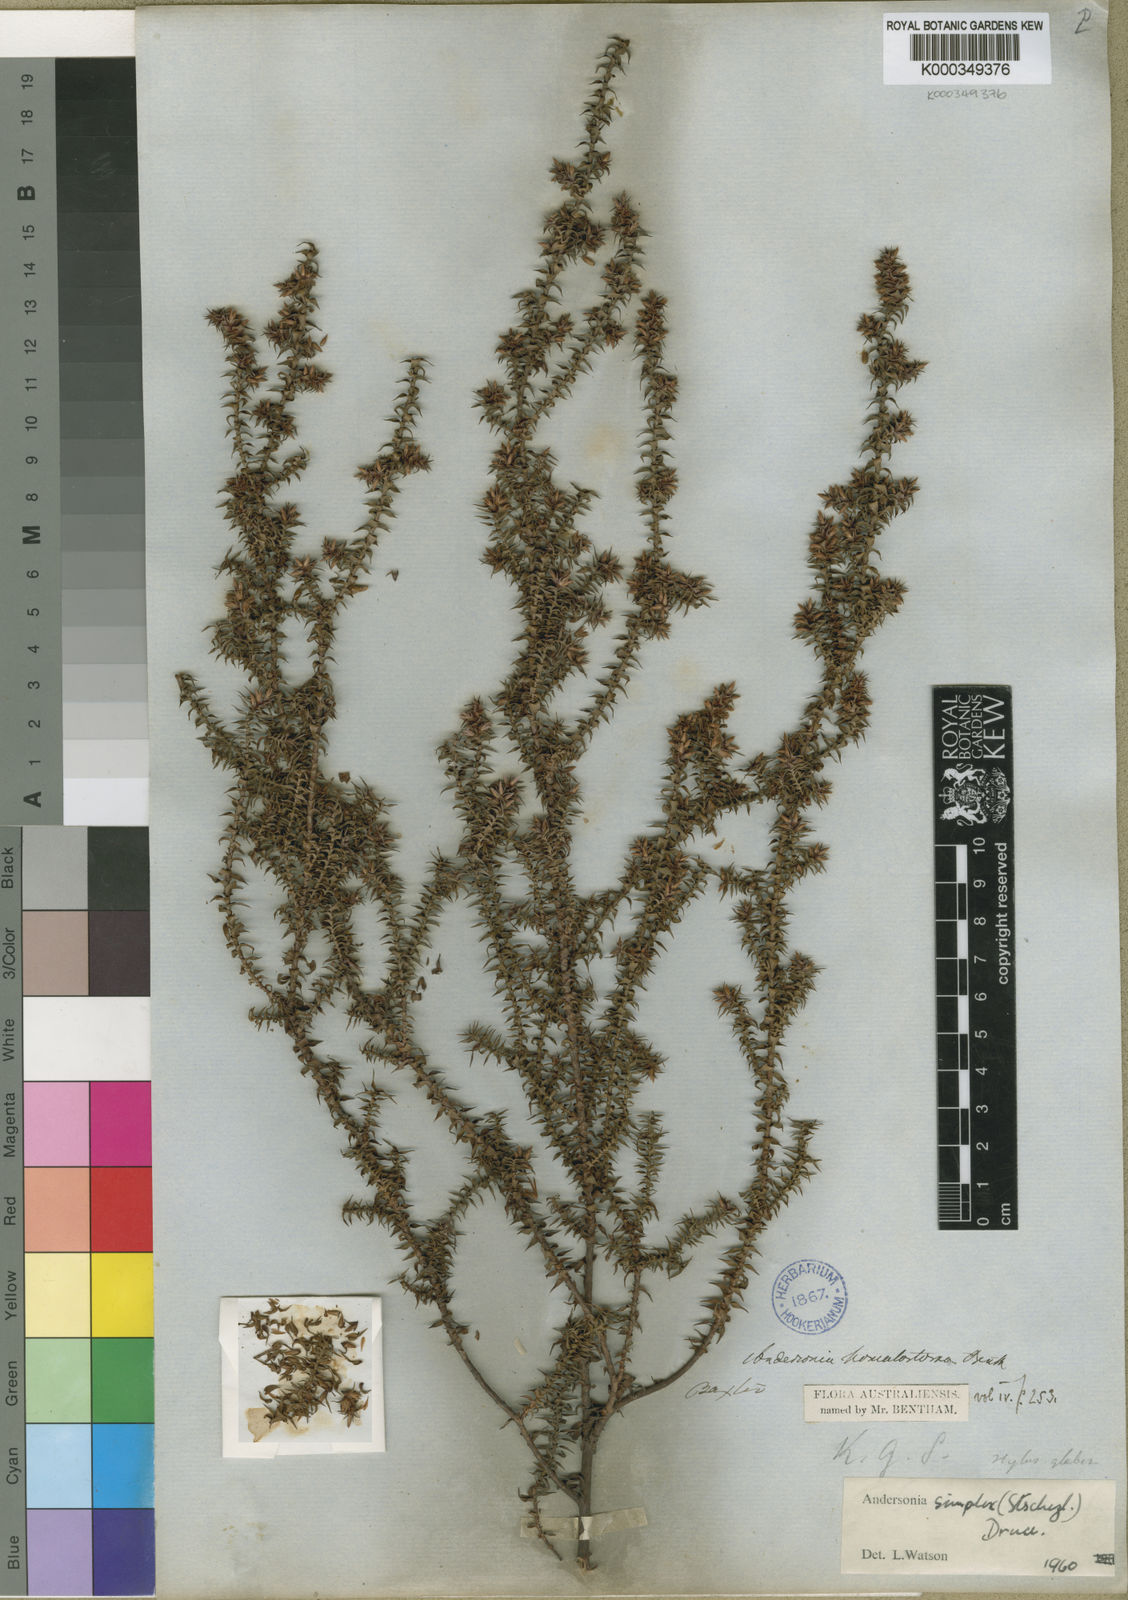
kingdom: Plantae
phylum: Tracheophyta
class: Magnoliopsida
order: Ericales
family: Ericaceae
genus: Andersonia
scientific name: Andersonia simplex
